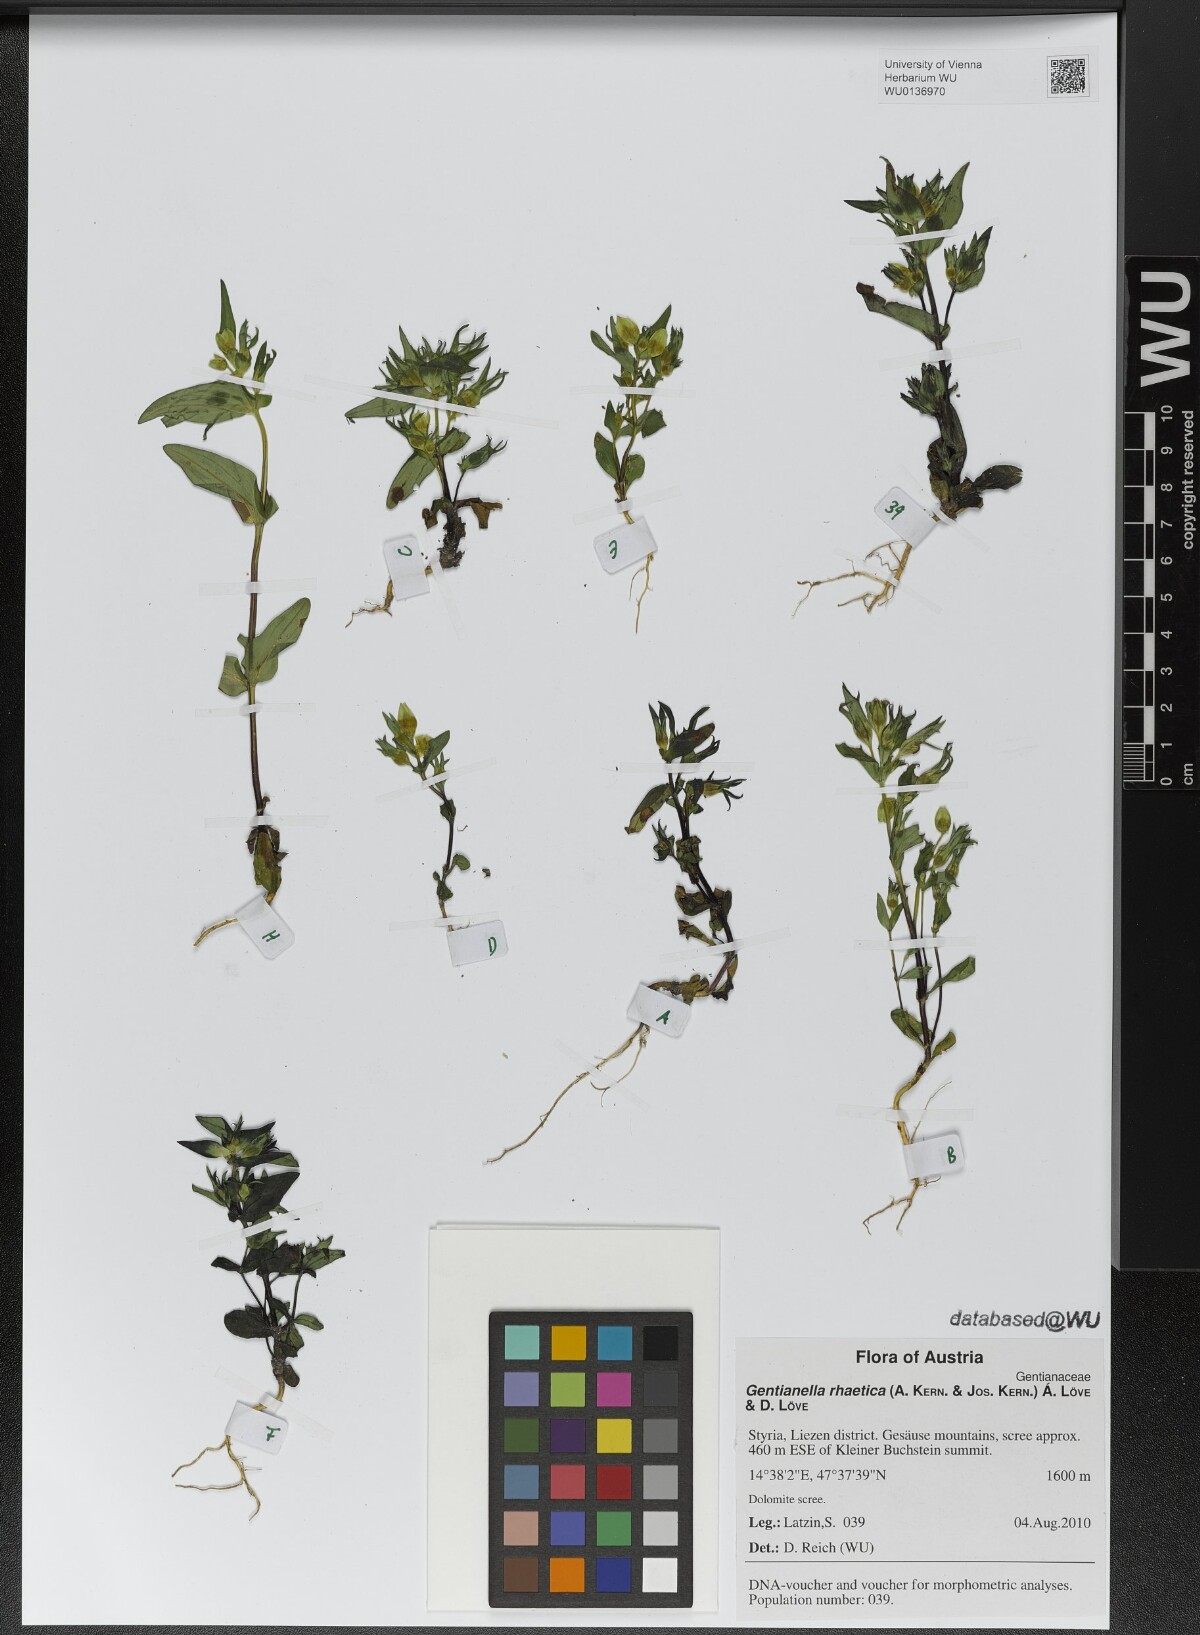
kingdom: Plantae
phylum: Tracheophyta
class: Magnoliopsida
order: Gentianales
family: Gentianaceae
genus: Gentianella
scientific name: Gentianella rhaetica
